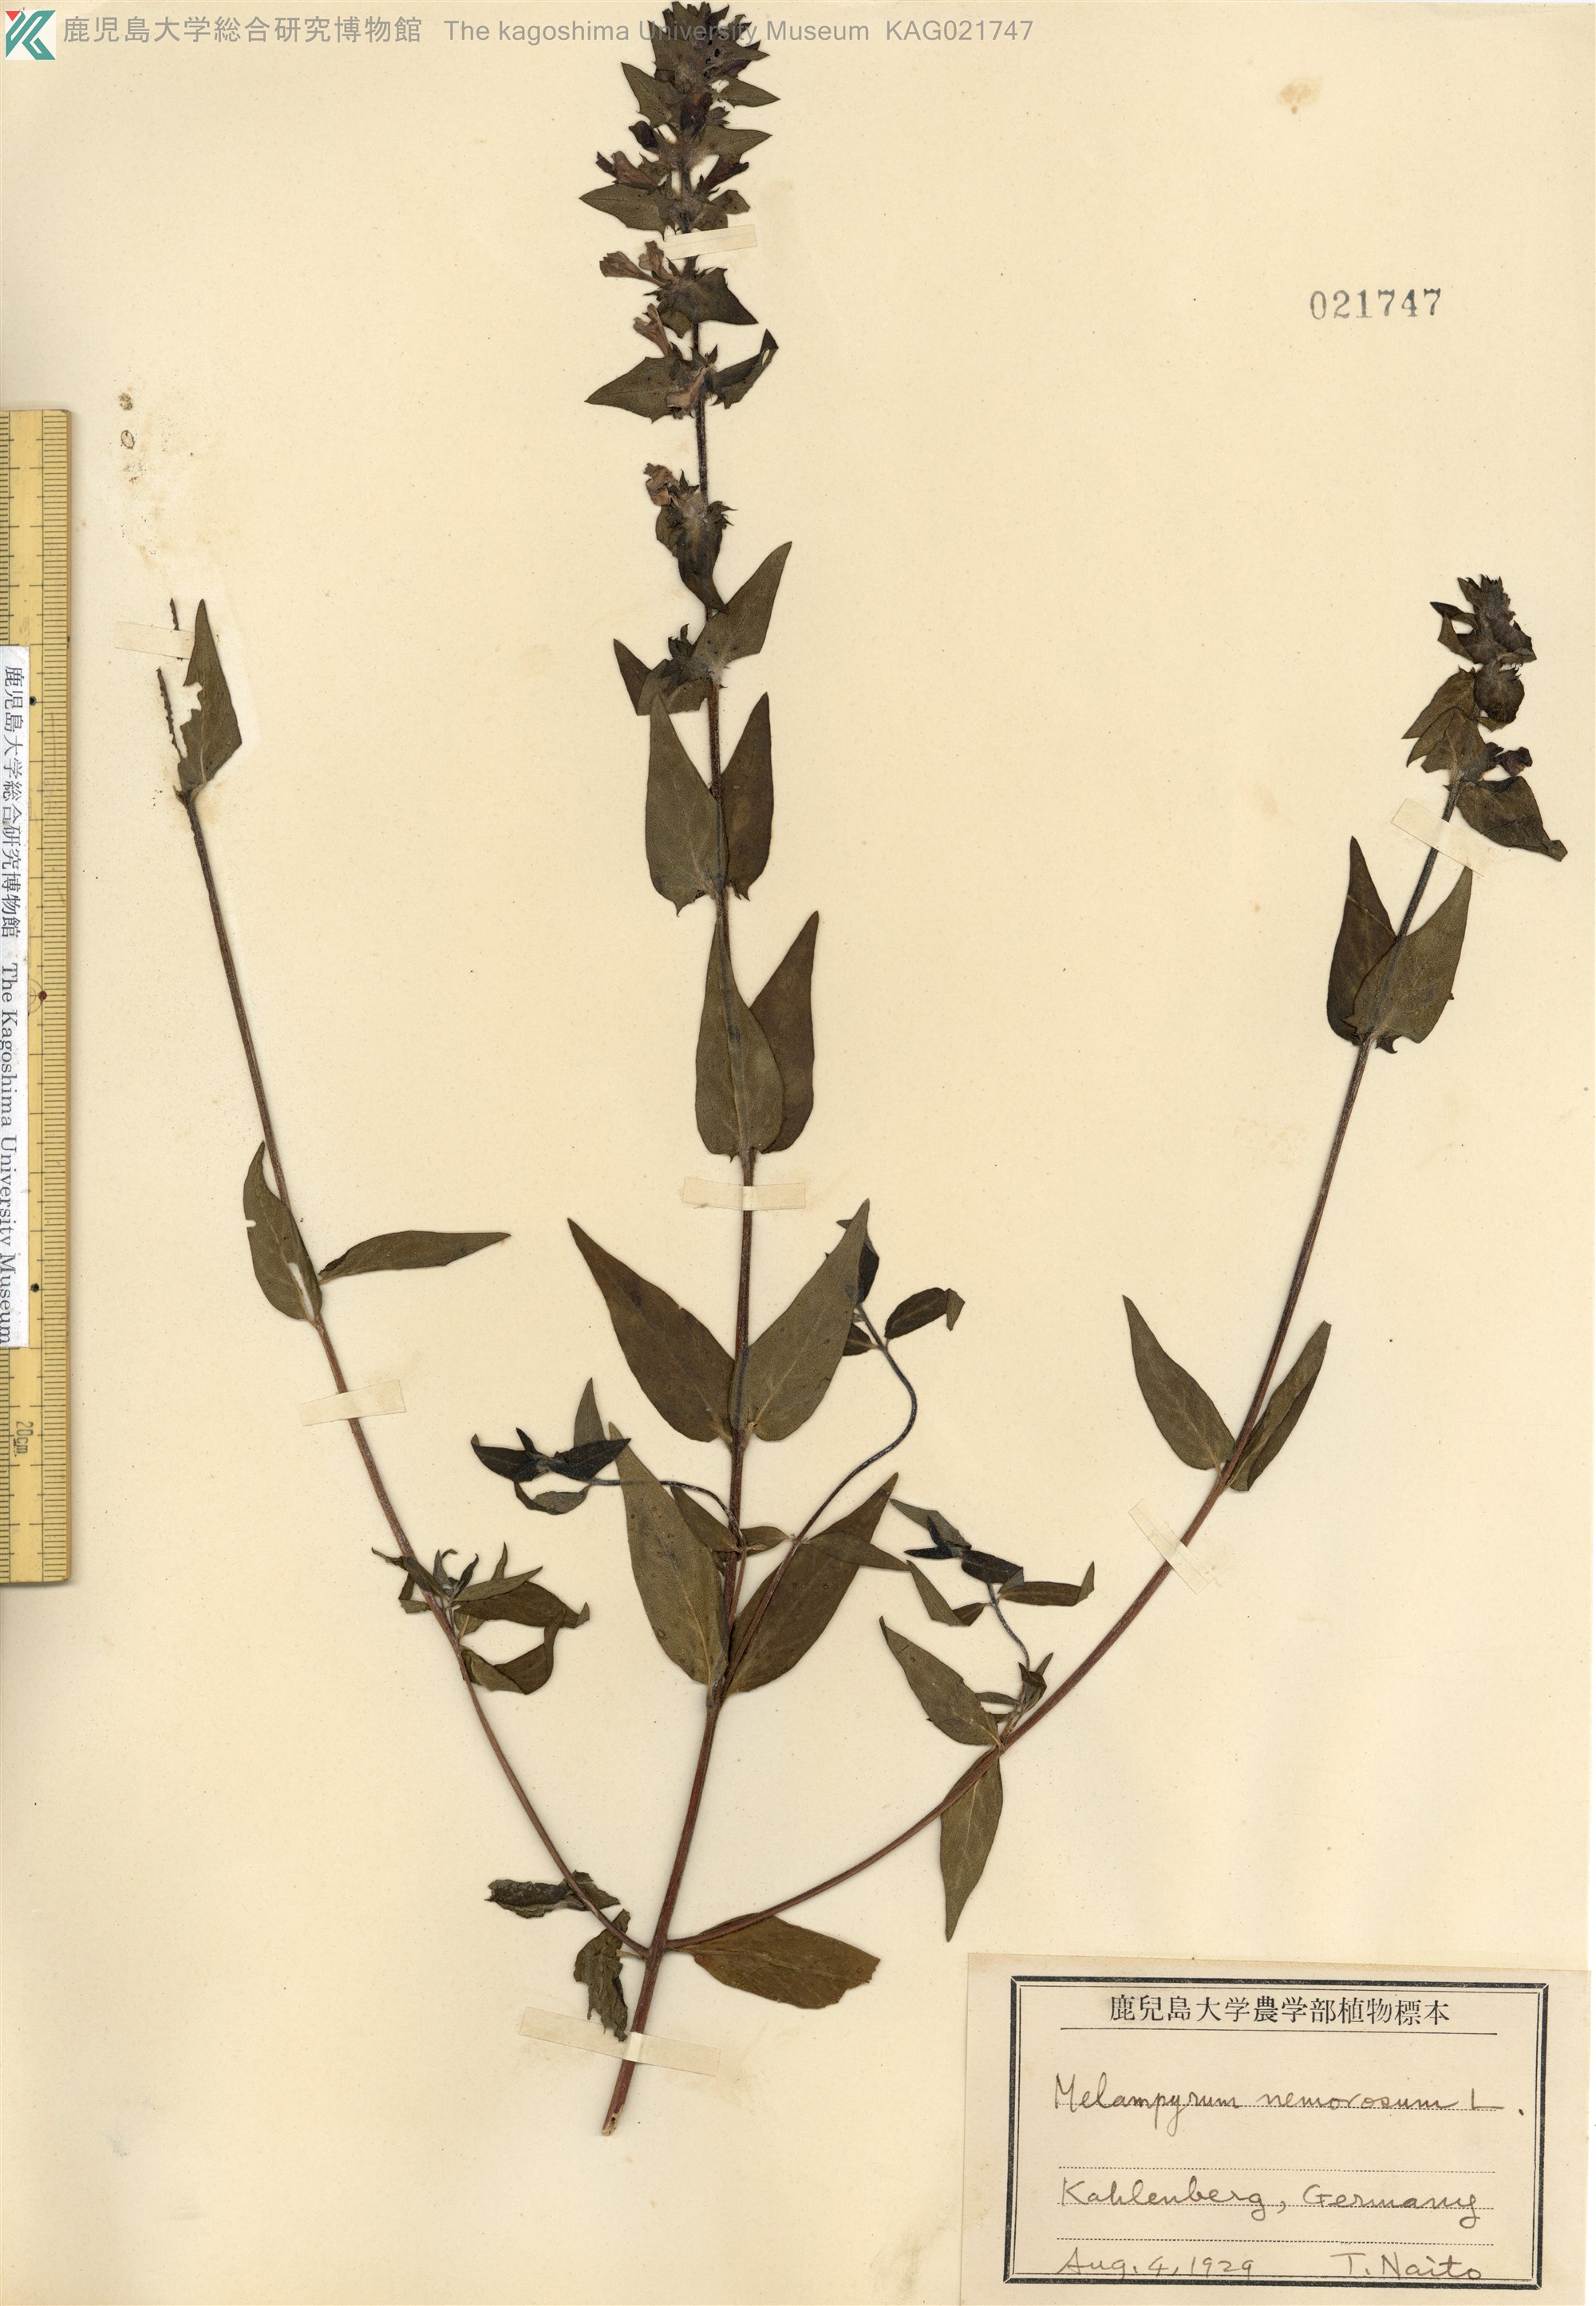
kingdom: Plantae
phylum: Tracheophyta
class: Magnoliopsida
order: Lamiales
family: Orobanchaceae
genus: Melampyrum
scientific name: Melampyrum nemorosum
